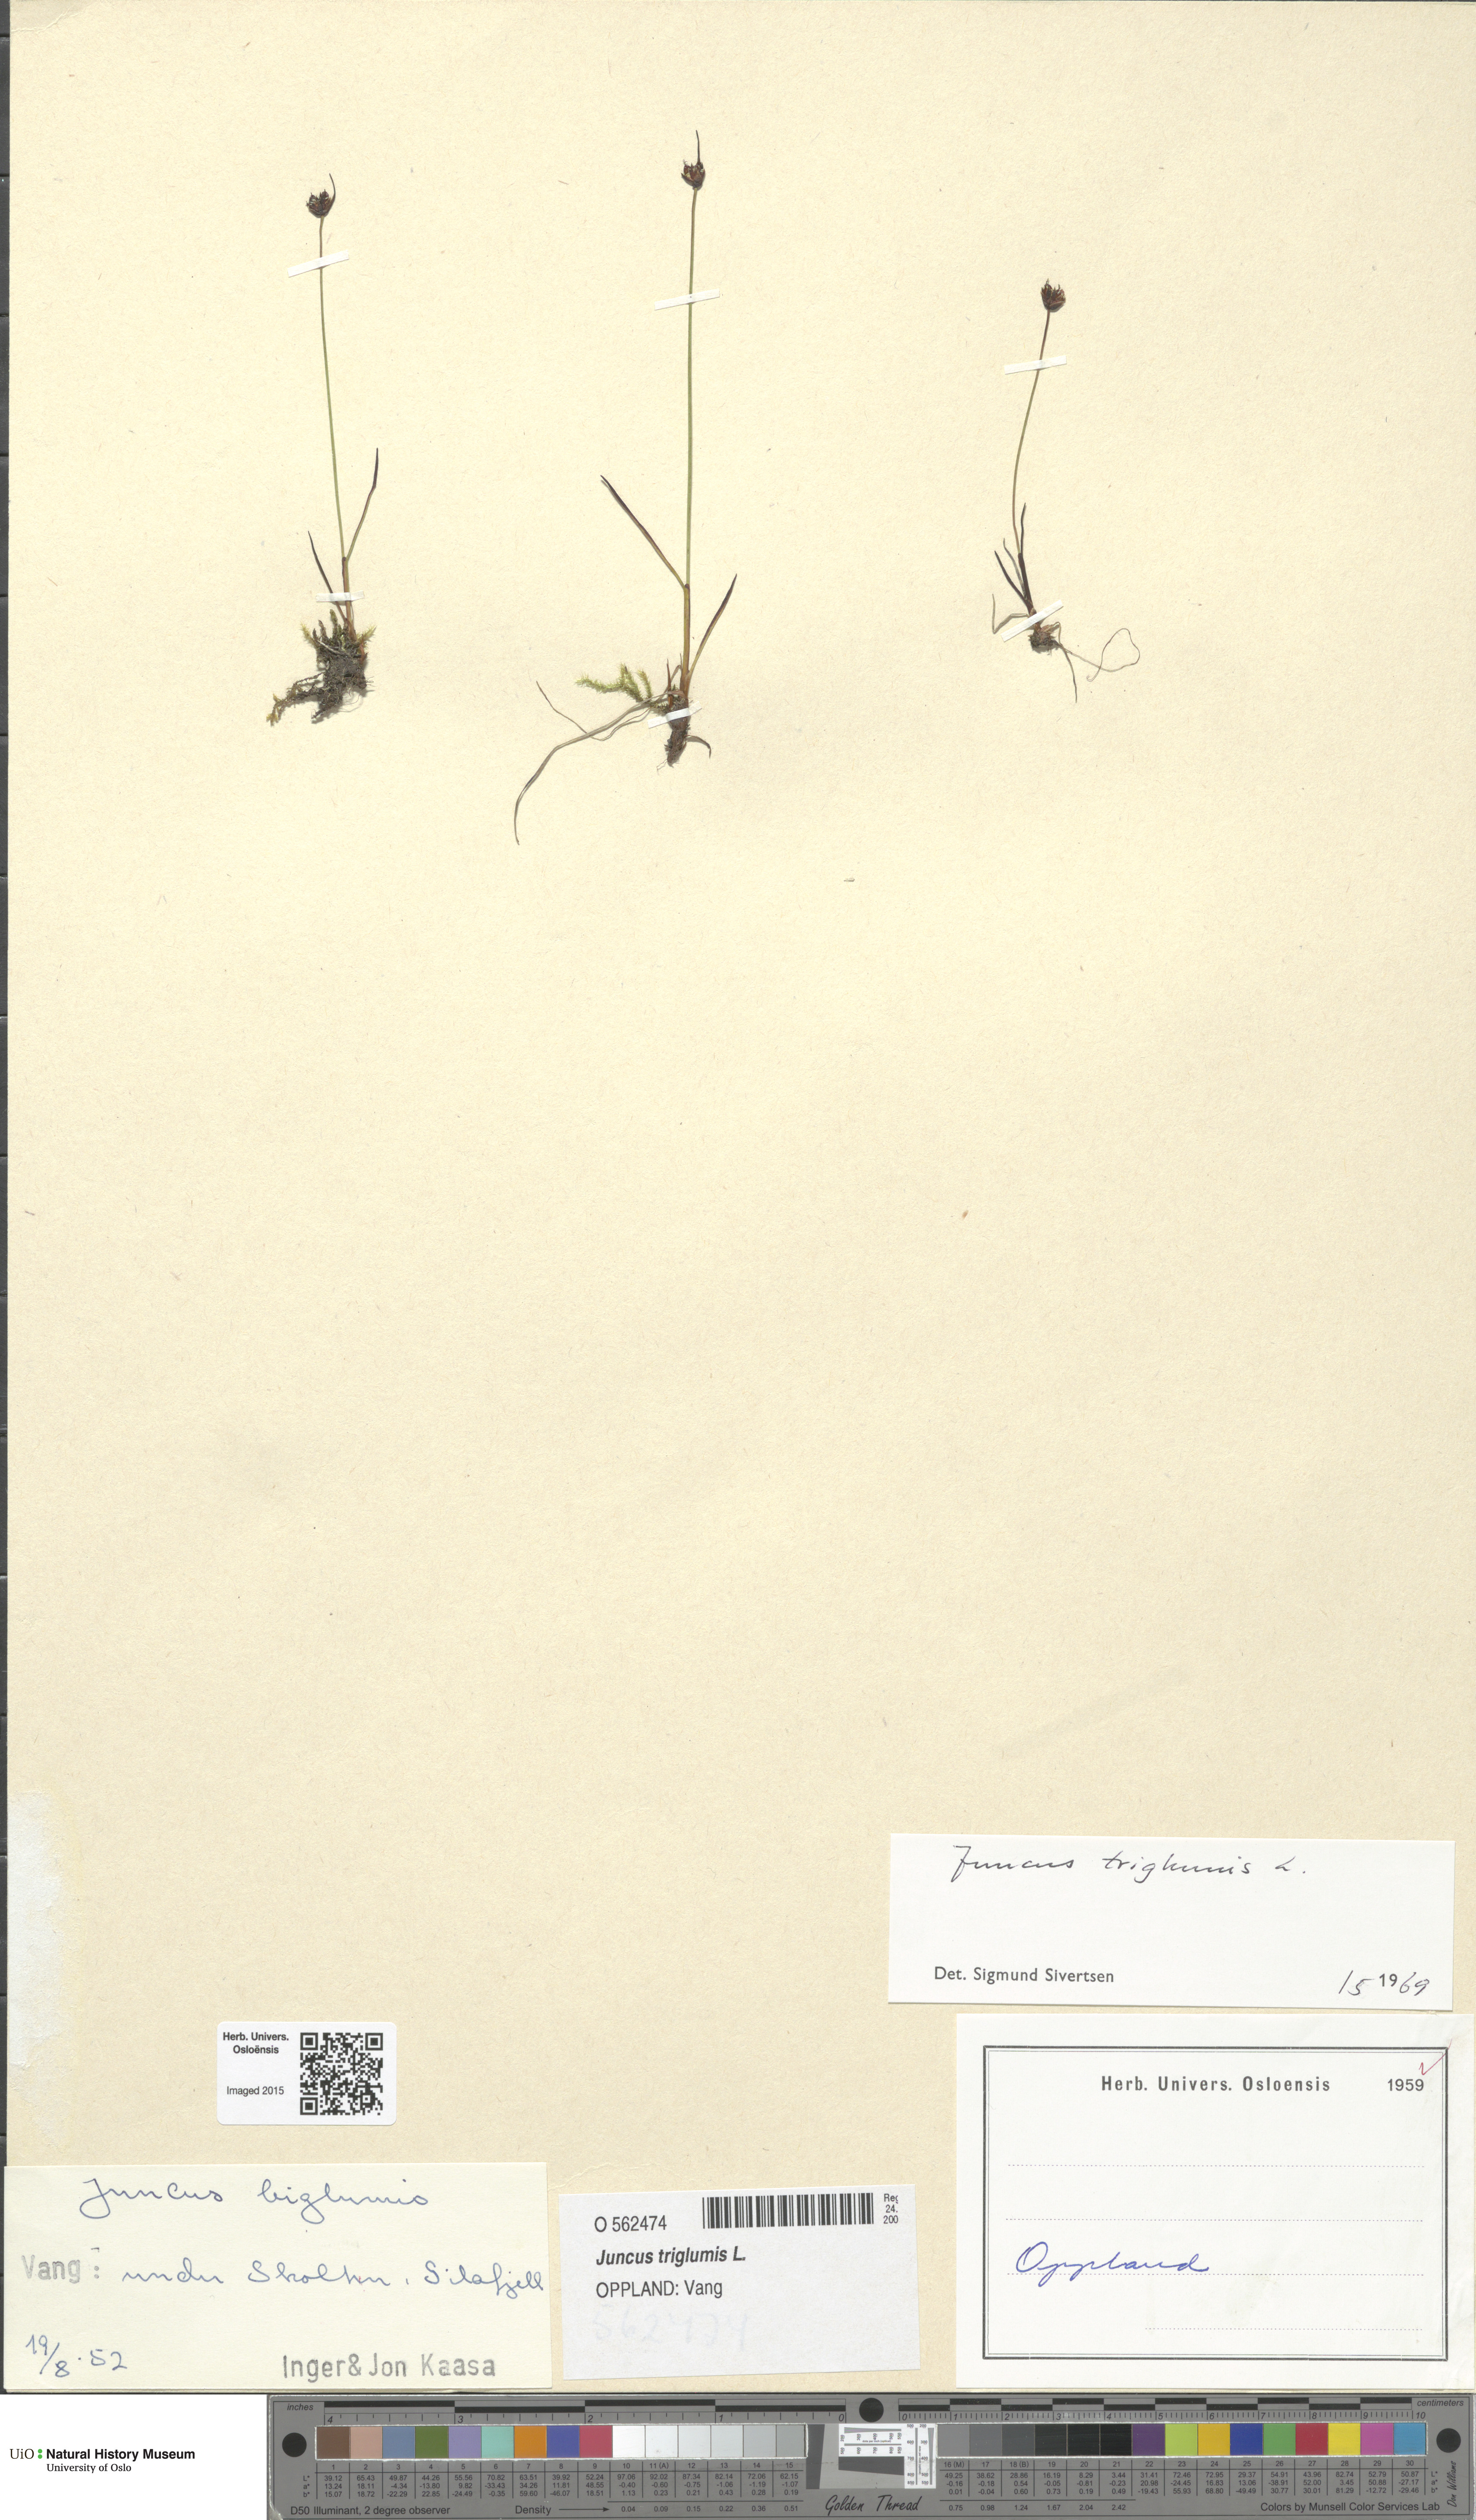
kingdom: Plantae
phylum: Tracheophyta
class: Liliopsida
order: Poales
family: Juncaceae
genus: Juncus
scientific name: Juncus triglumis
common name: Three-flowered rush
